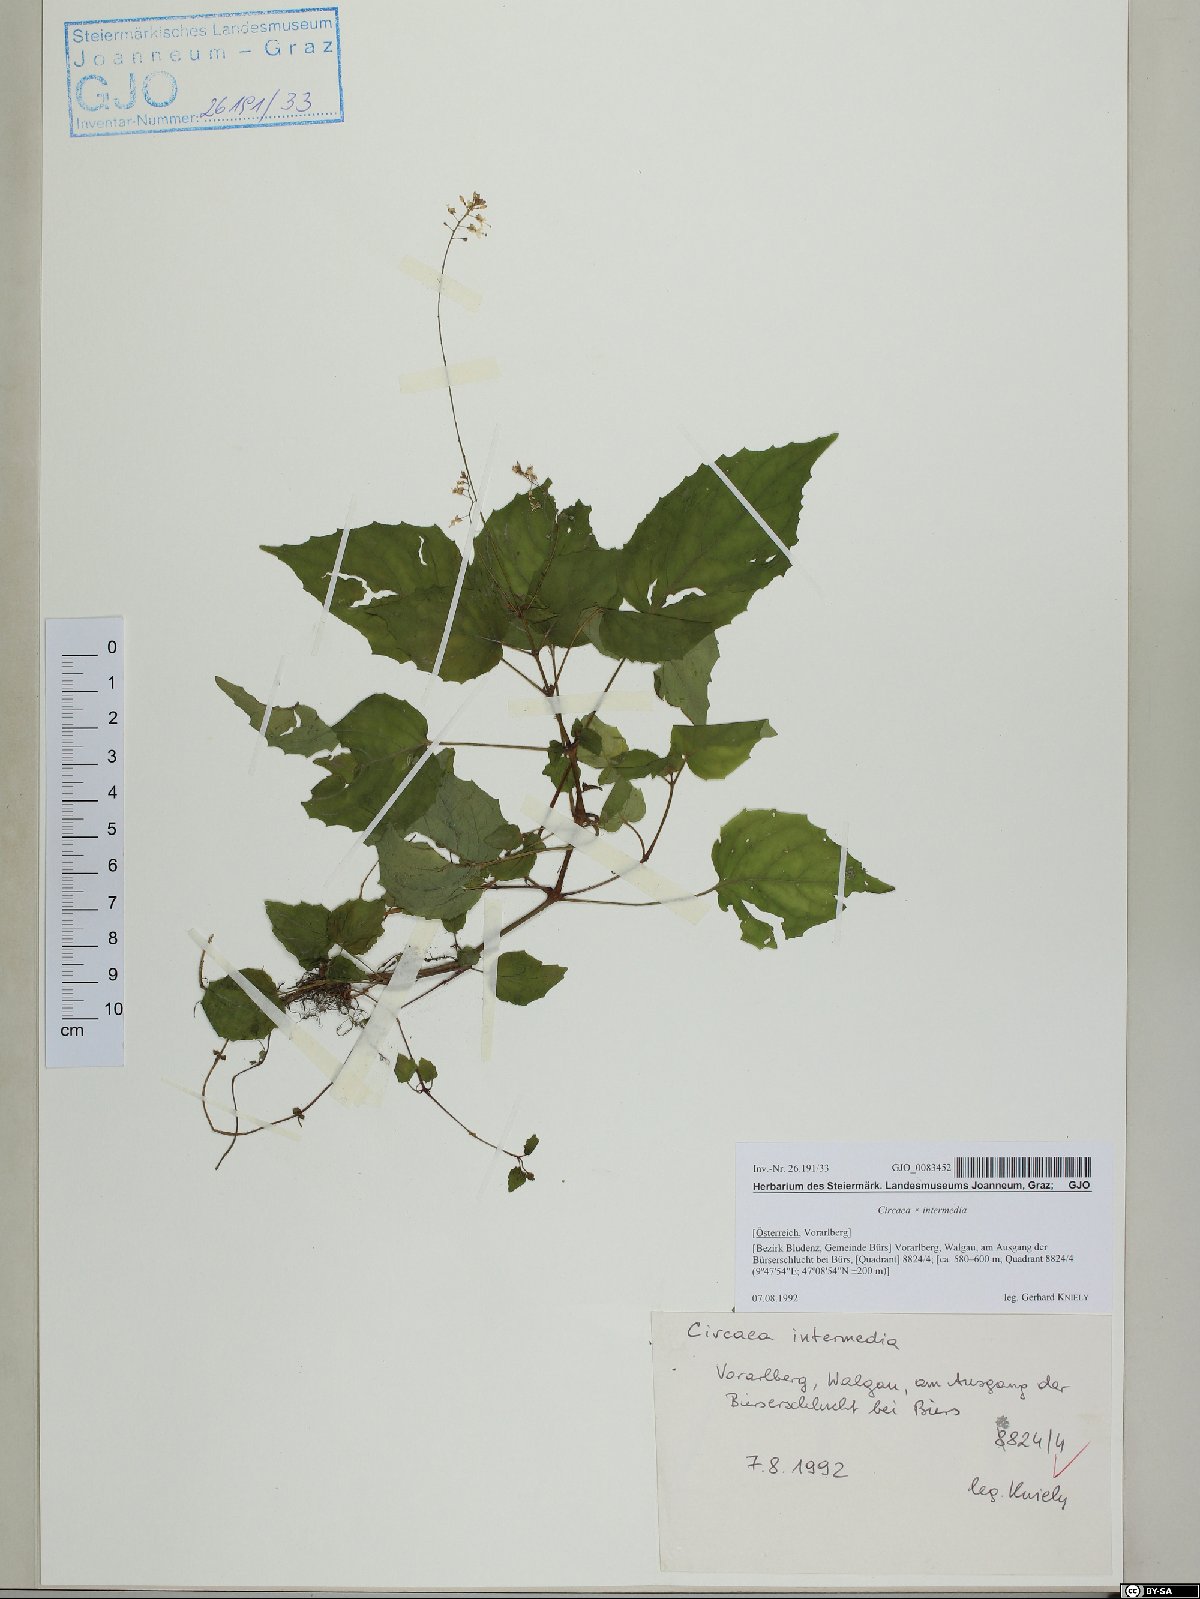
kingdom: Plantae
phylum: Tracheophyta
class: Magnoliopsida
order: Myrtales
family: Onagraceae
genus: Circaea
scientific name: Circaea intermedia
